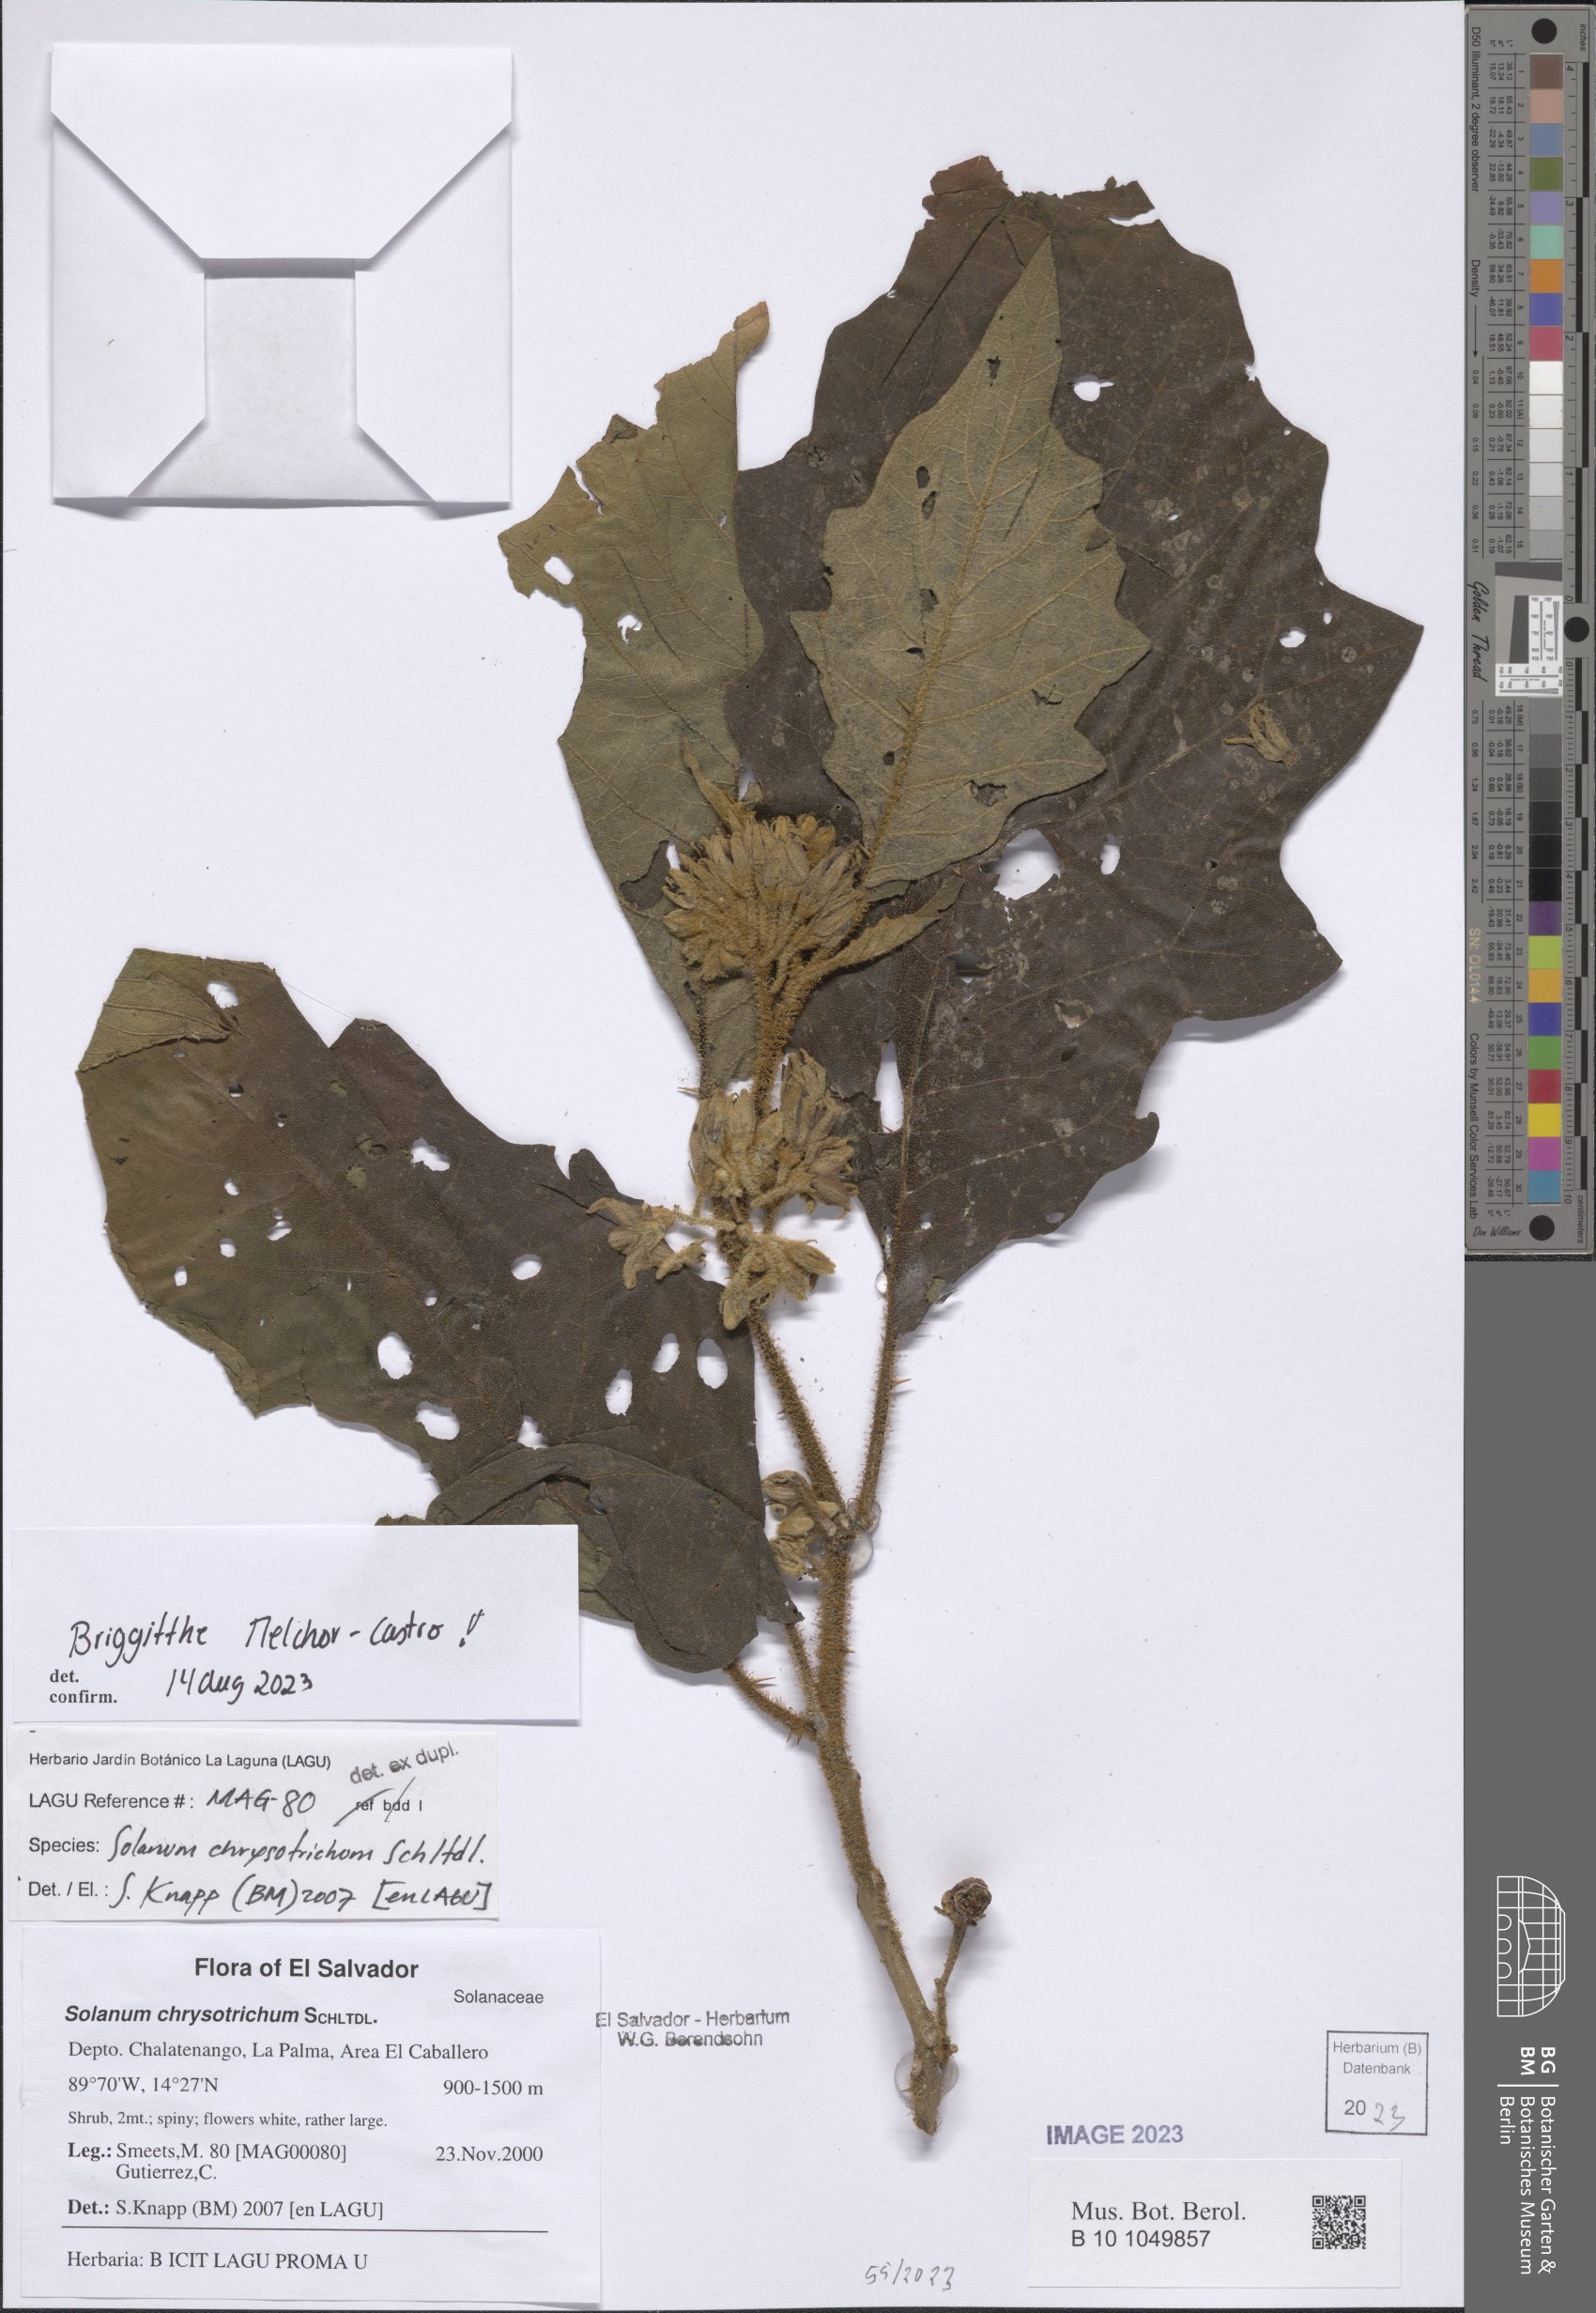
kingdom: Plantae
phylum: Tracheophyta
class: Magnoliopsida
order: Solanales
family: Solanaceae
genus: Solanum
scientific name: Solanum chrysotrichum
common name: Nightshade
